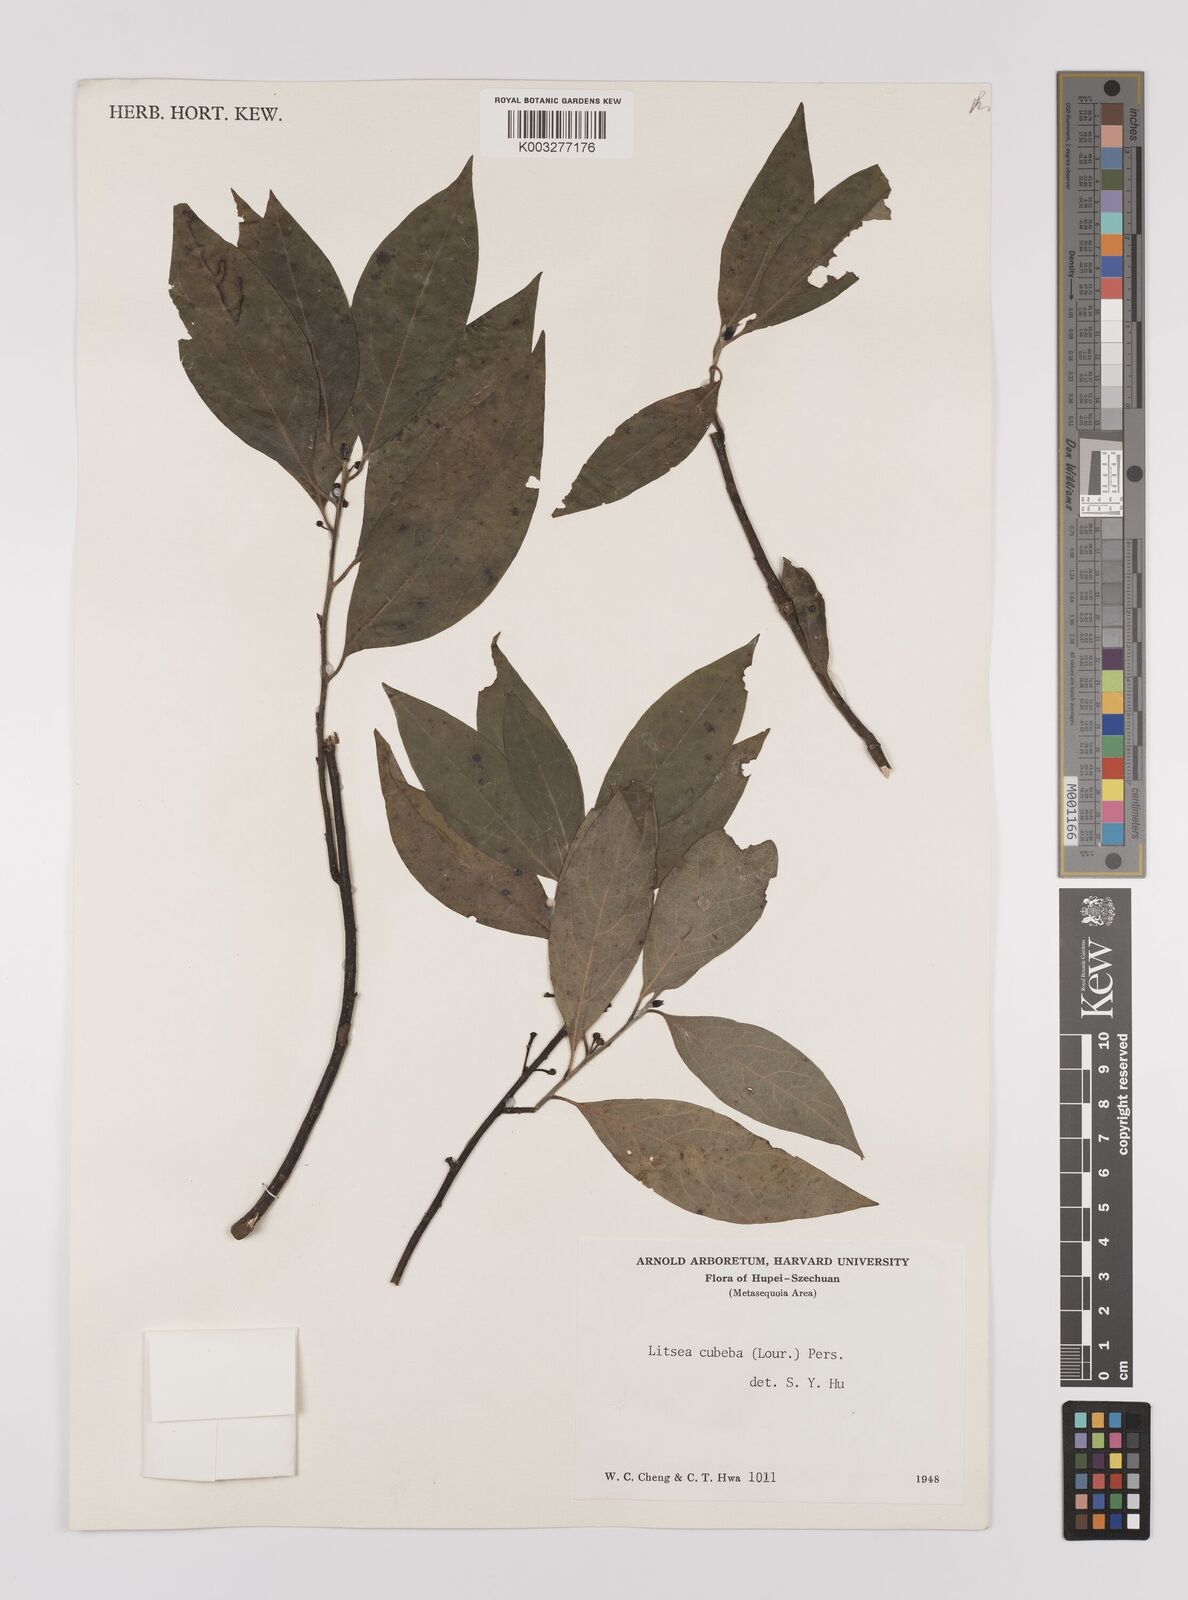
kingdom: Plantae
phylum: Tracheophyta
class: Magnoliopsida
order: Laurales
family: Lauraceae
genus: Litsea
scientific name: Litsea cubeba
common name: Mountain-pepper
